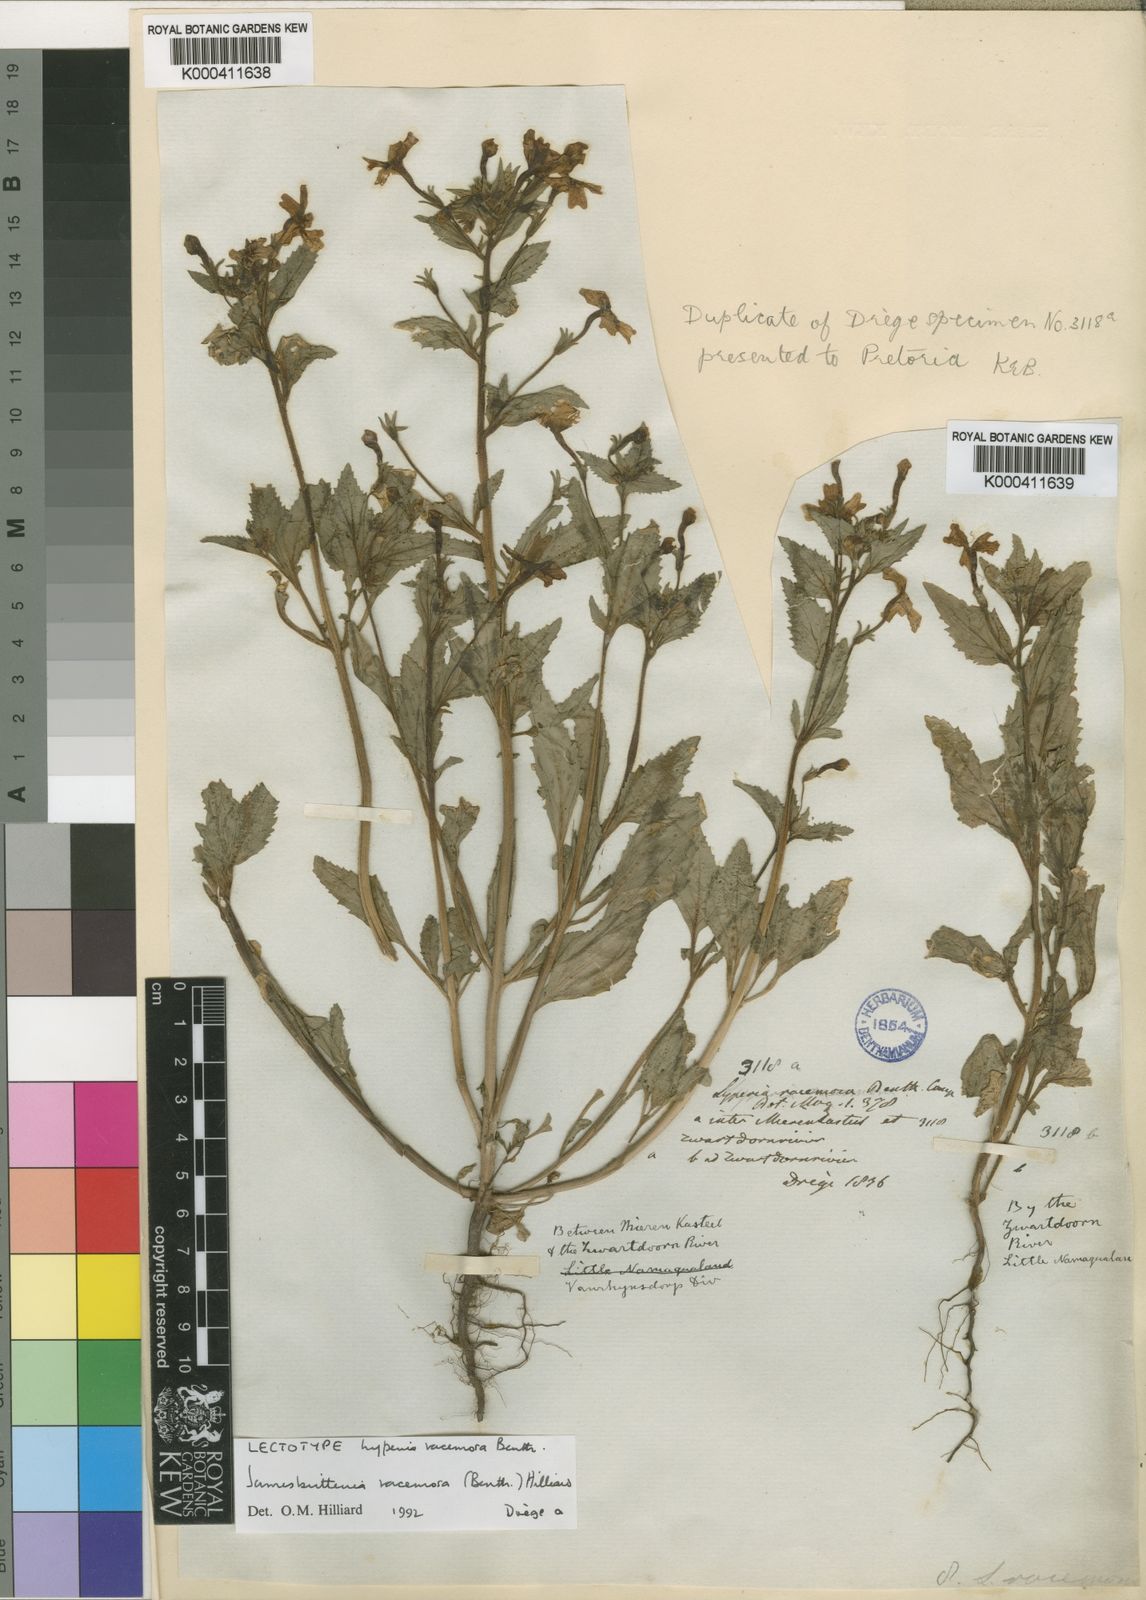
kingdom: Plantae
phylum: Tracheophyta
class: Magnoliopsida
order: Lamiales
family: Scrophulariaceae
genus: Jamesbrittenia
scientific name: Jamesbrittenia racemosa
